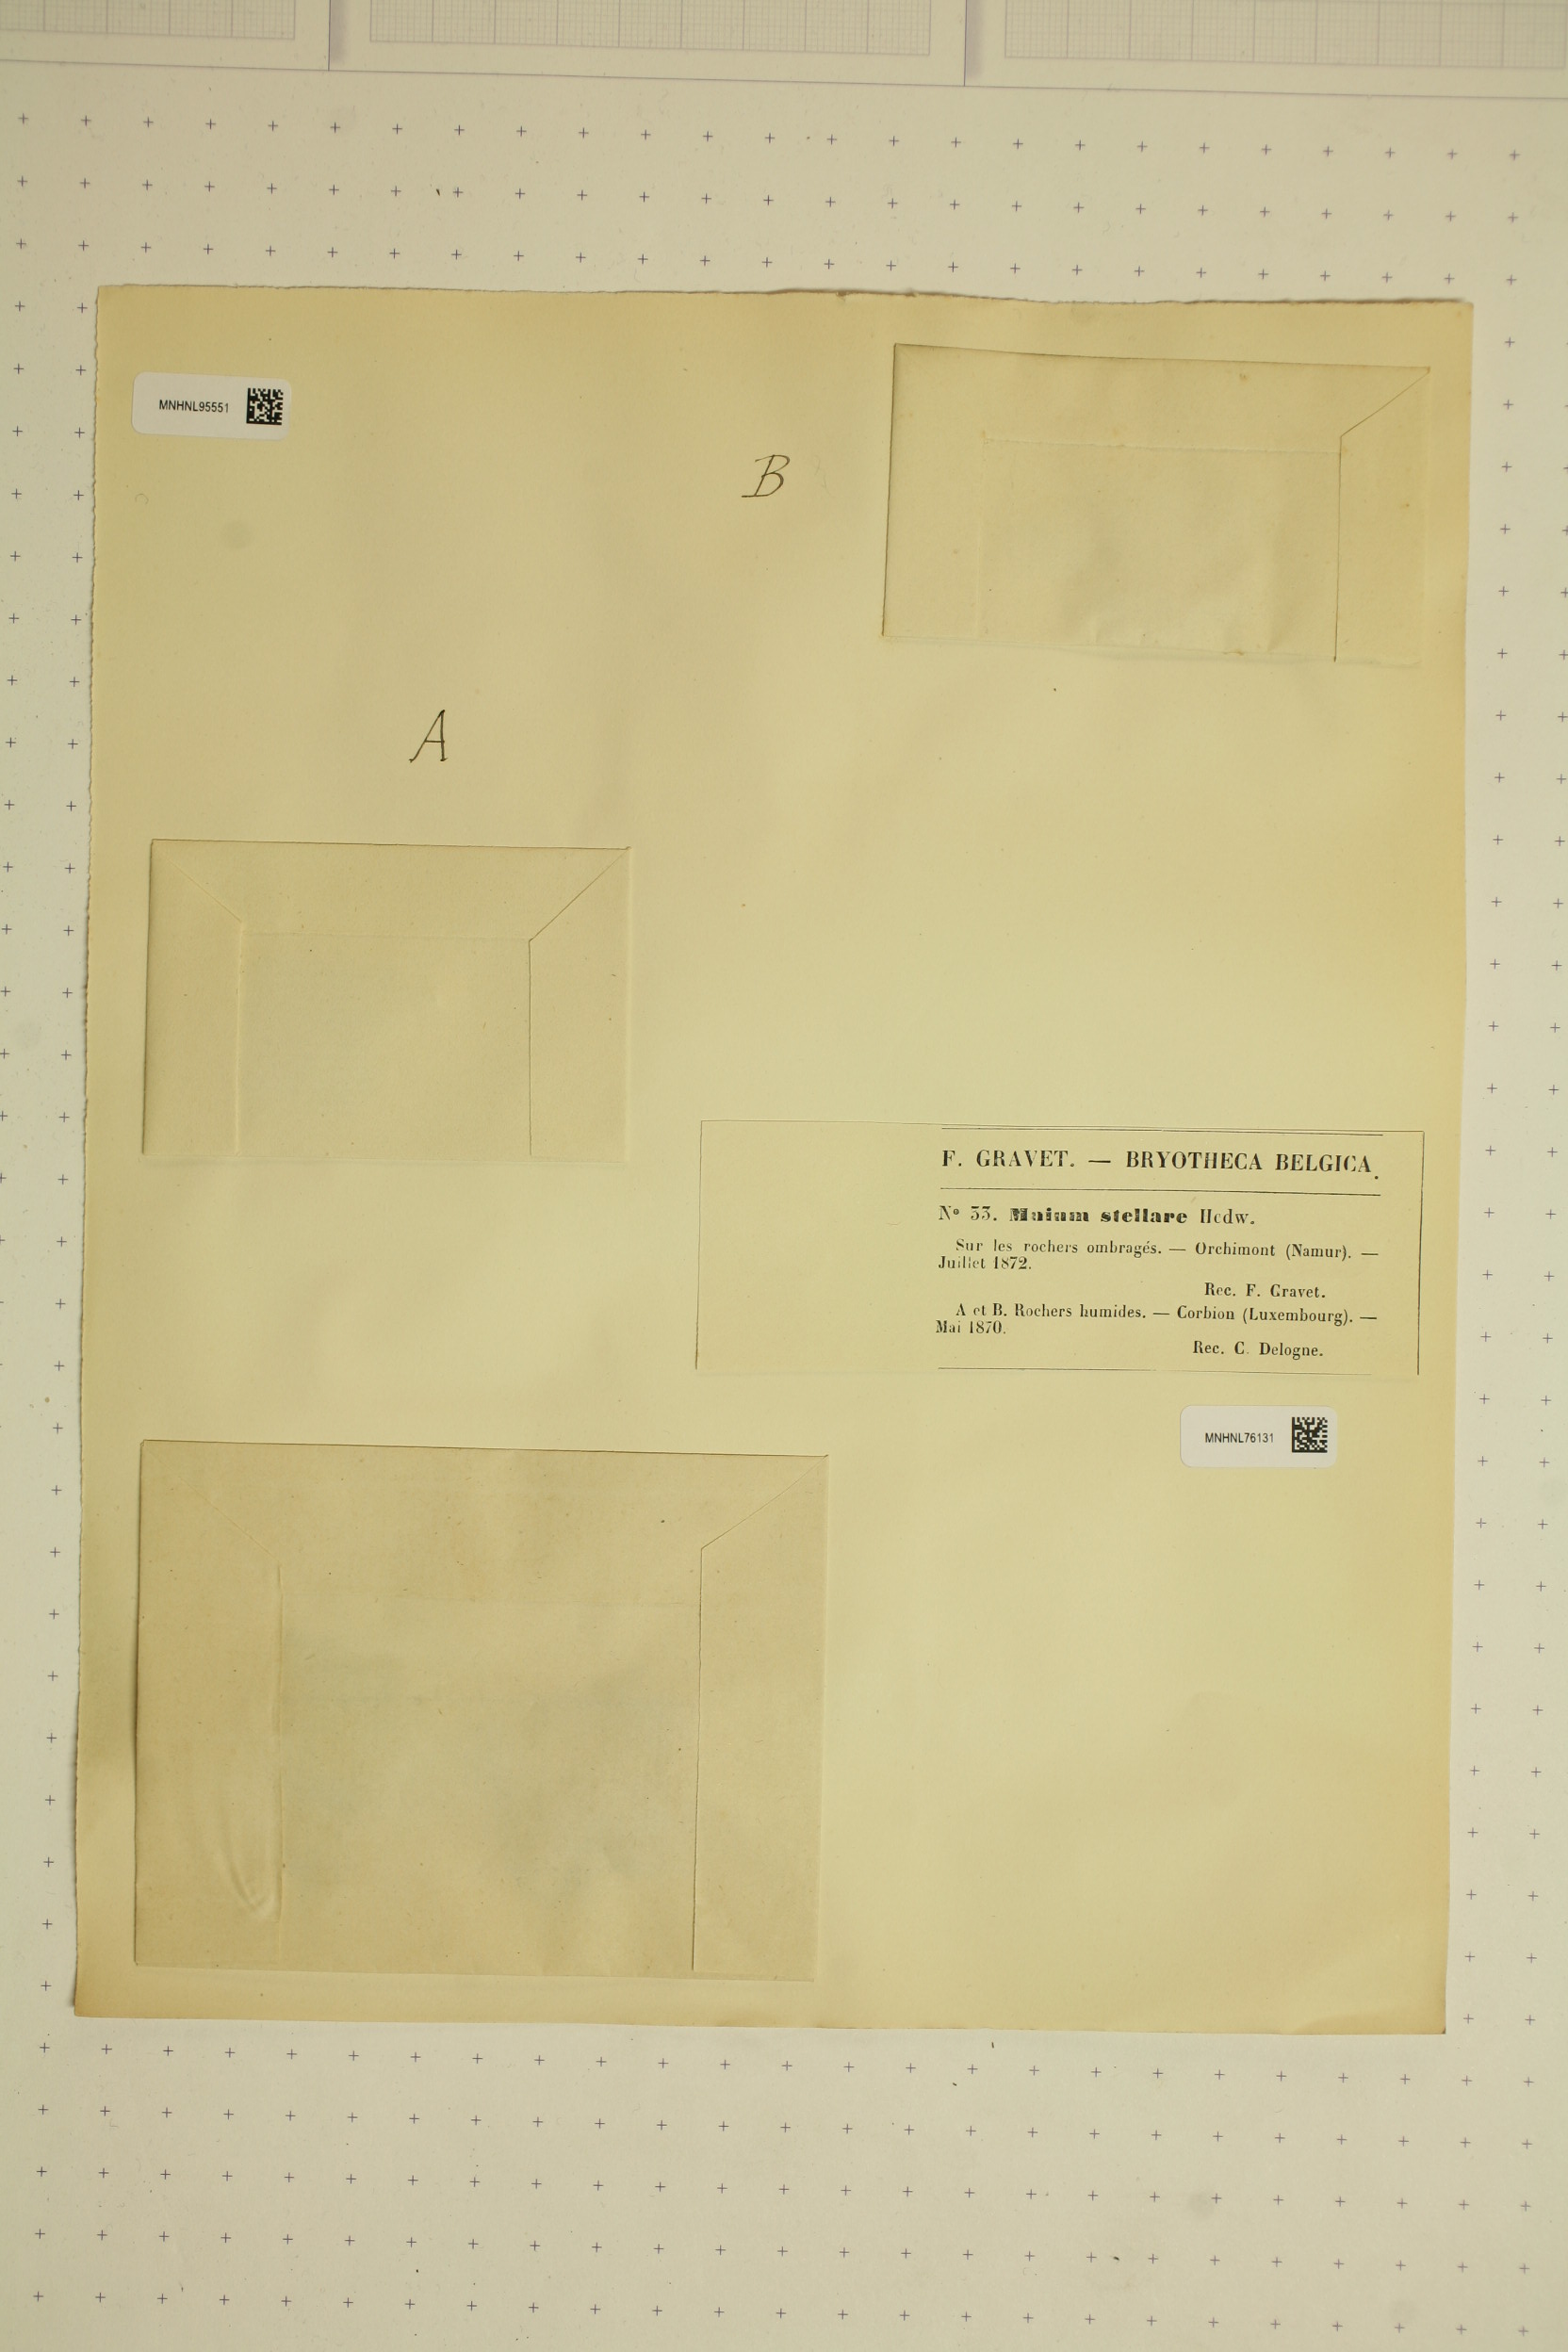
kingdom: Plantae
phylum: Bryophyta
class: Bryopsida
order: Bryales
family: Mniaceae
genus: Mnium
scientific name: Mnium stellare
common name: Star leafy moss
